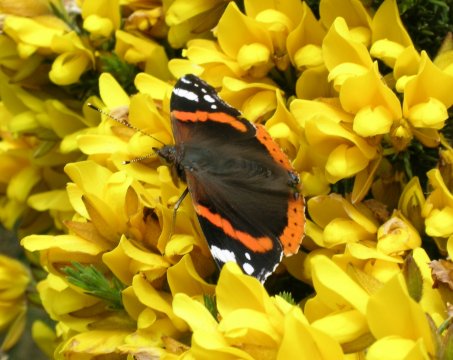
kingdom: Animalia
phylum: Arthropoda
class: Insecta
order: Lepidoptera
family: Nymphalidae
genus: Vanessa
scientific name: Vanessa atalanta
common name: Red Admiral
